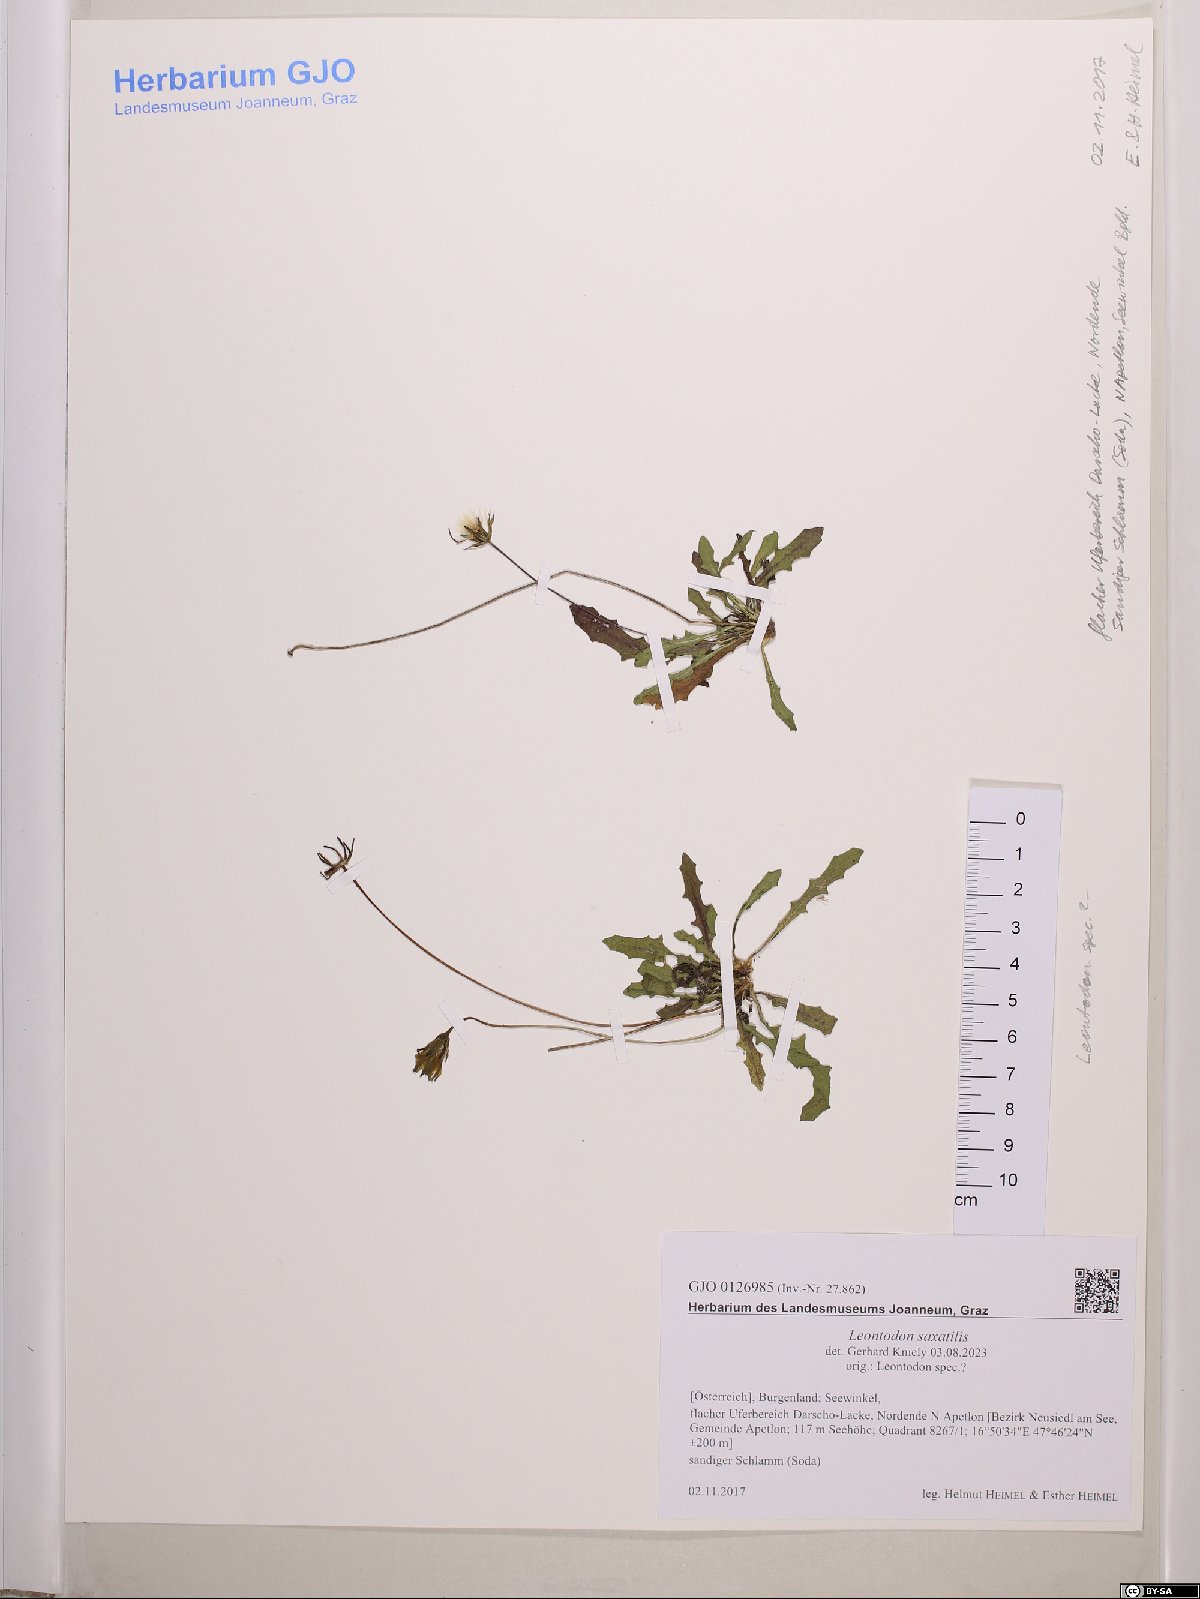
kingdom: Plantae
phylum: Tracheophyta
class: Magnoliopsida
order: Asterales
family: Asteraceae
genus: Thrincia
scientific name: Thrincia saxatilis
